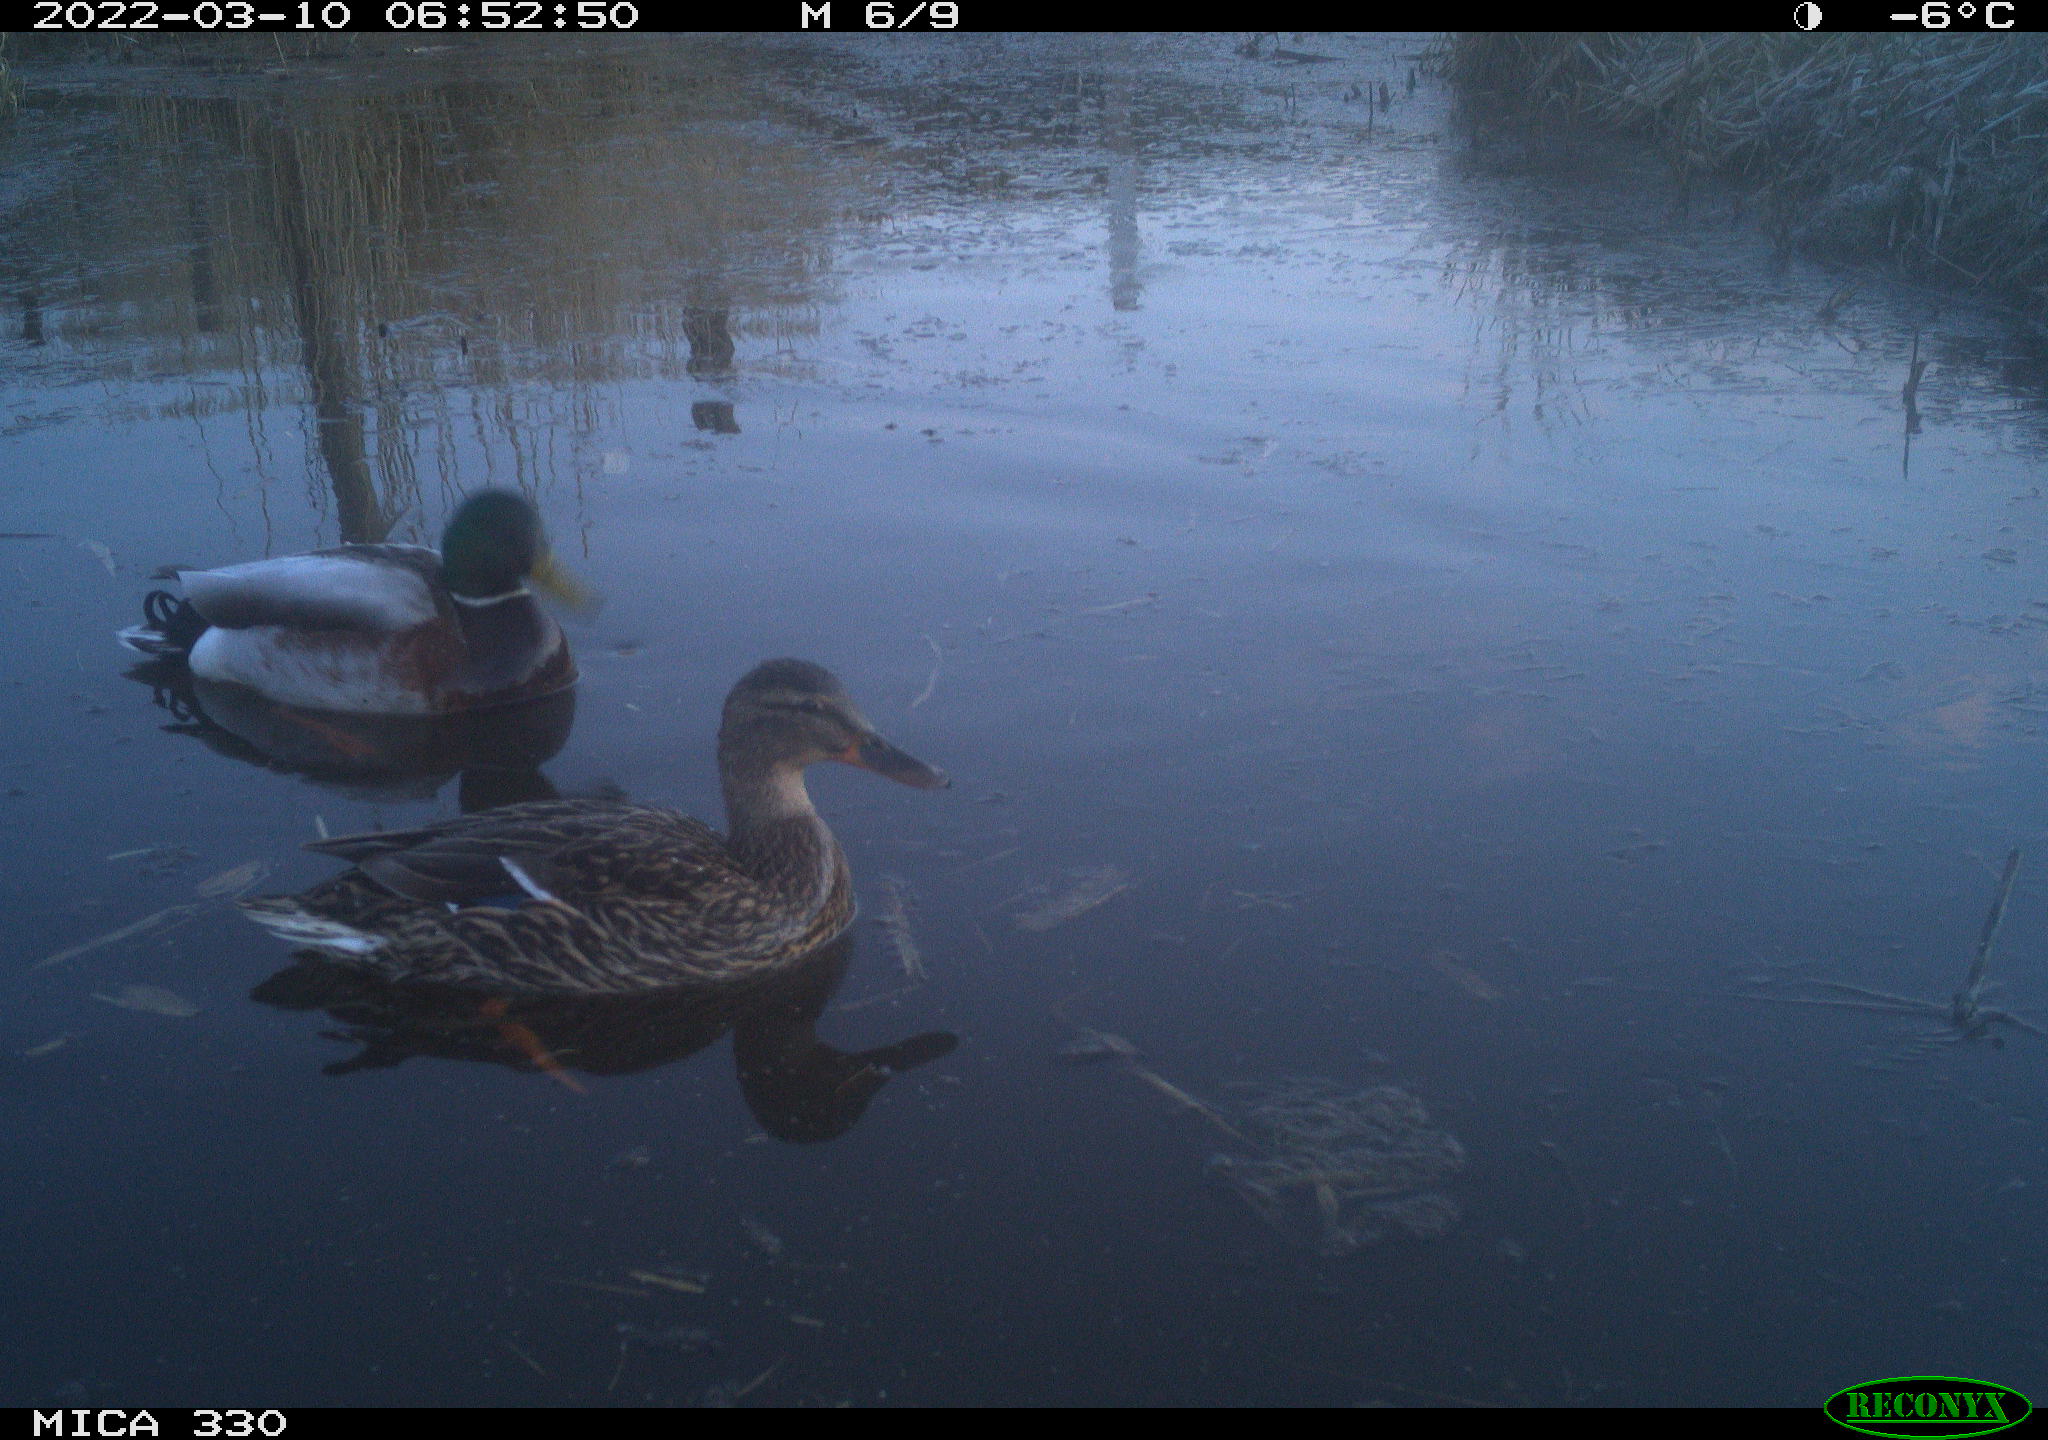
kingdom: Animalia
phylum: Chordata
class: Aves
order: Anseriformes
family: Anatidae
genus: Anas
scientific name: Anas platyrhynchos
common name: Mallard
